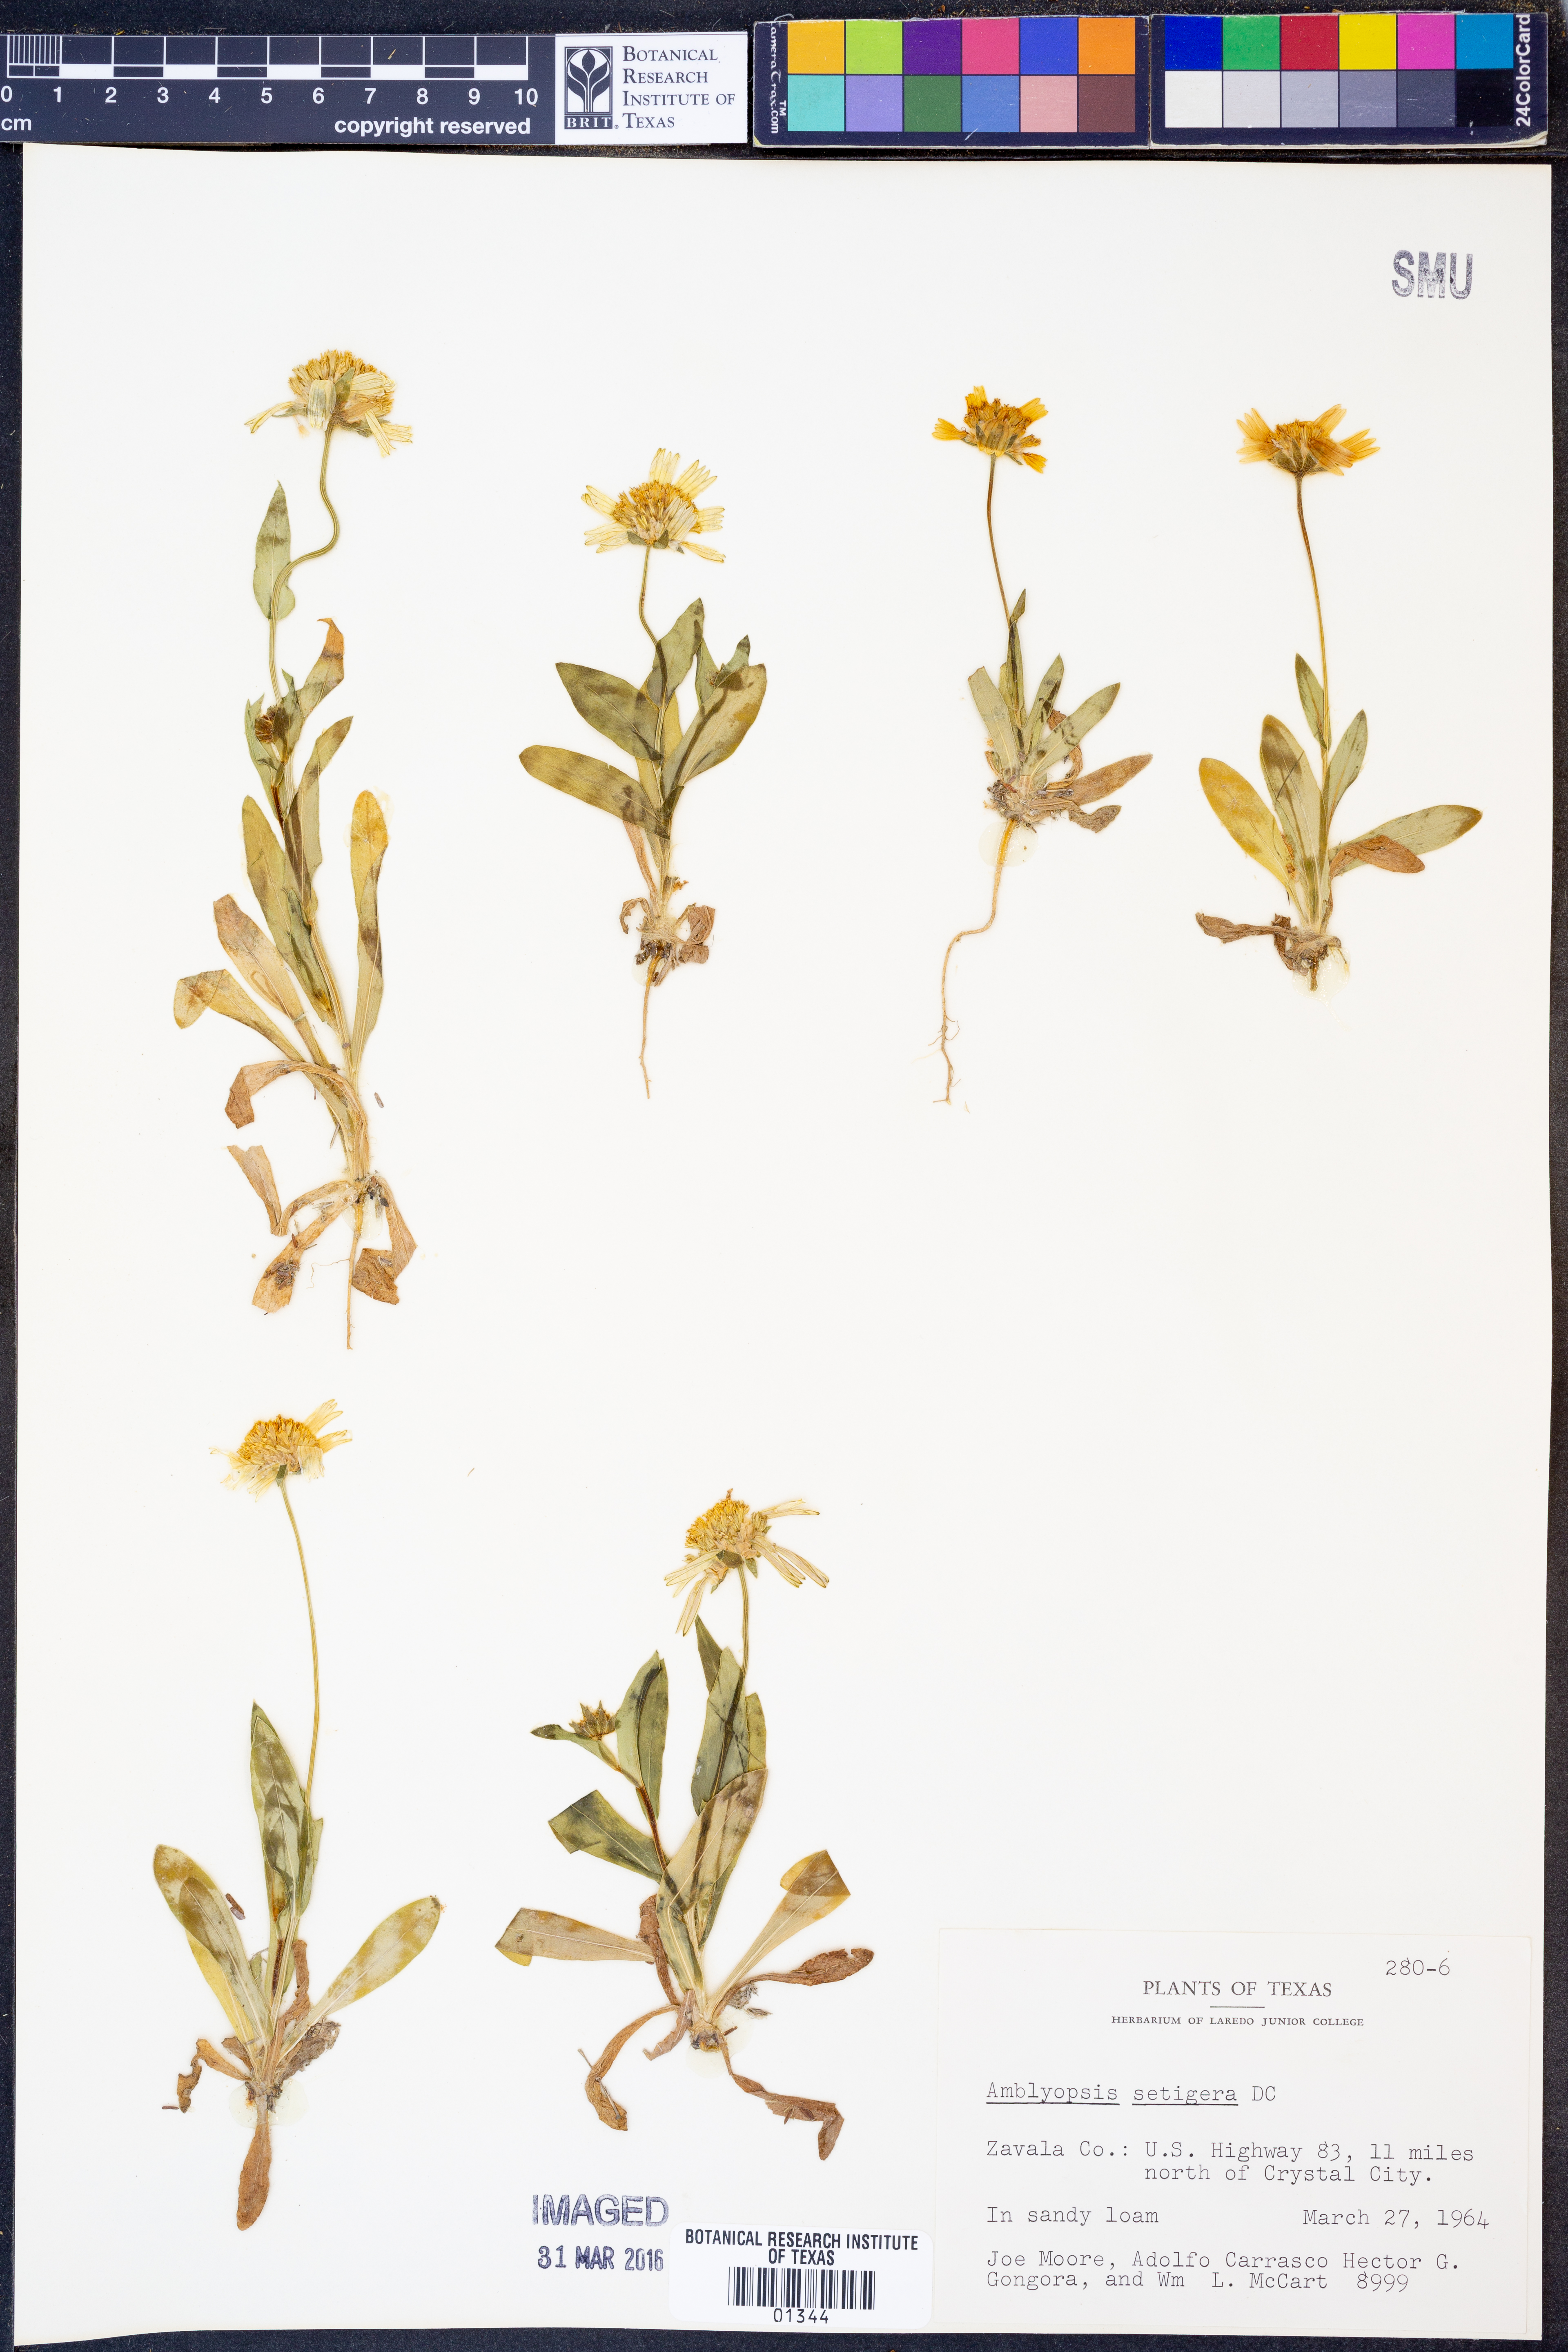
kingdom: Plantae
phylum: Tracheophyta
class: Magnoliopsida
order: Asterales
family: Asteraceae
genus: Amblyolepis
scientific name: Amblyolepis setigera
